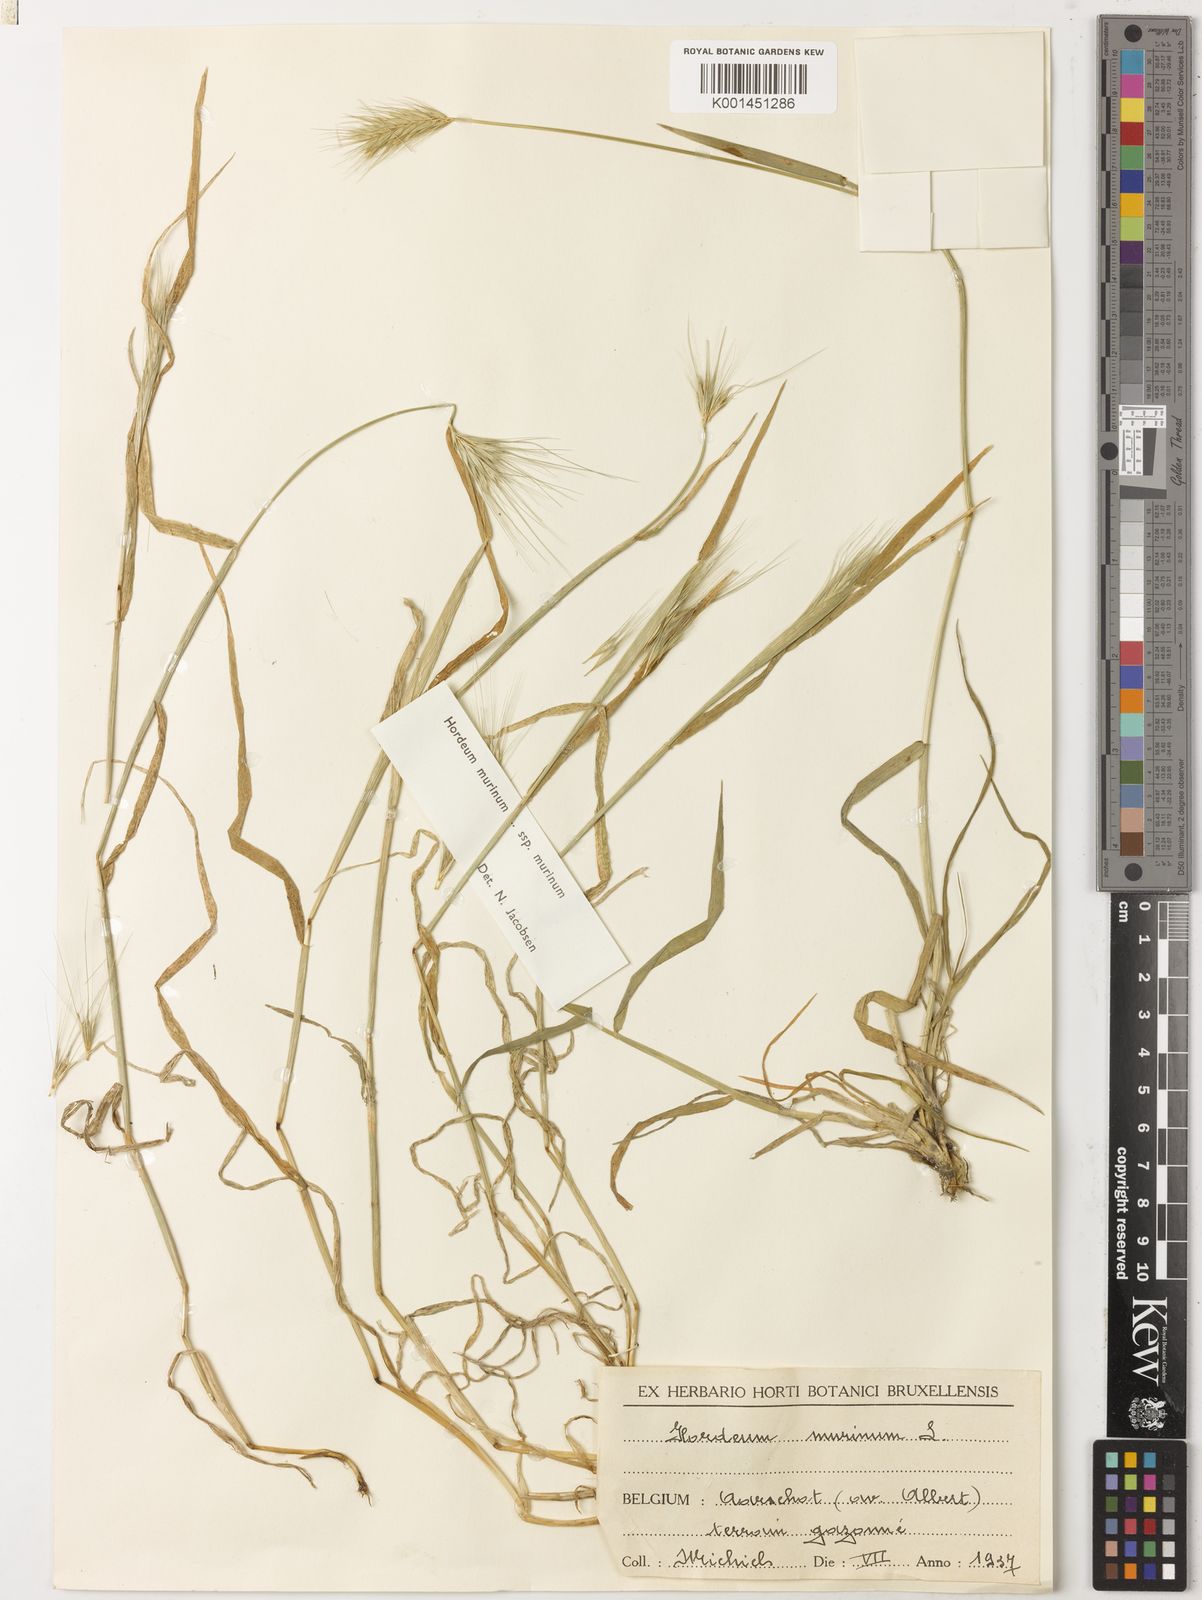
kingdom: Plantae
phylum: Tracheophyta
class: Liliopsida
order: Poales
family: Poaceae
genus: Hordeum
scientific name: Hordeum murinum
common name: Wall barley
